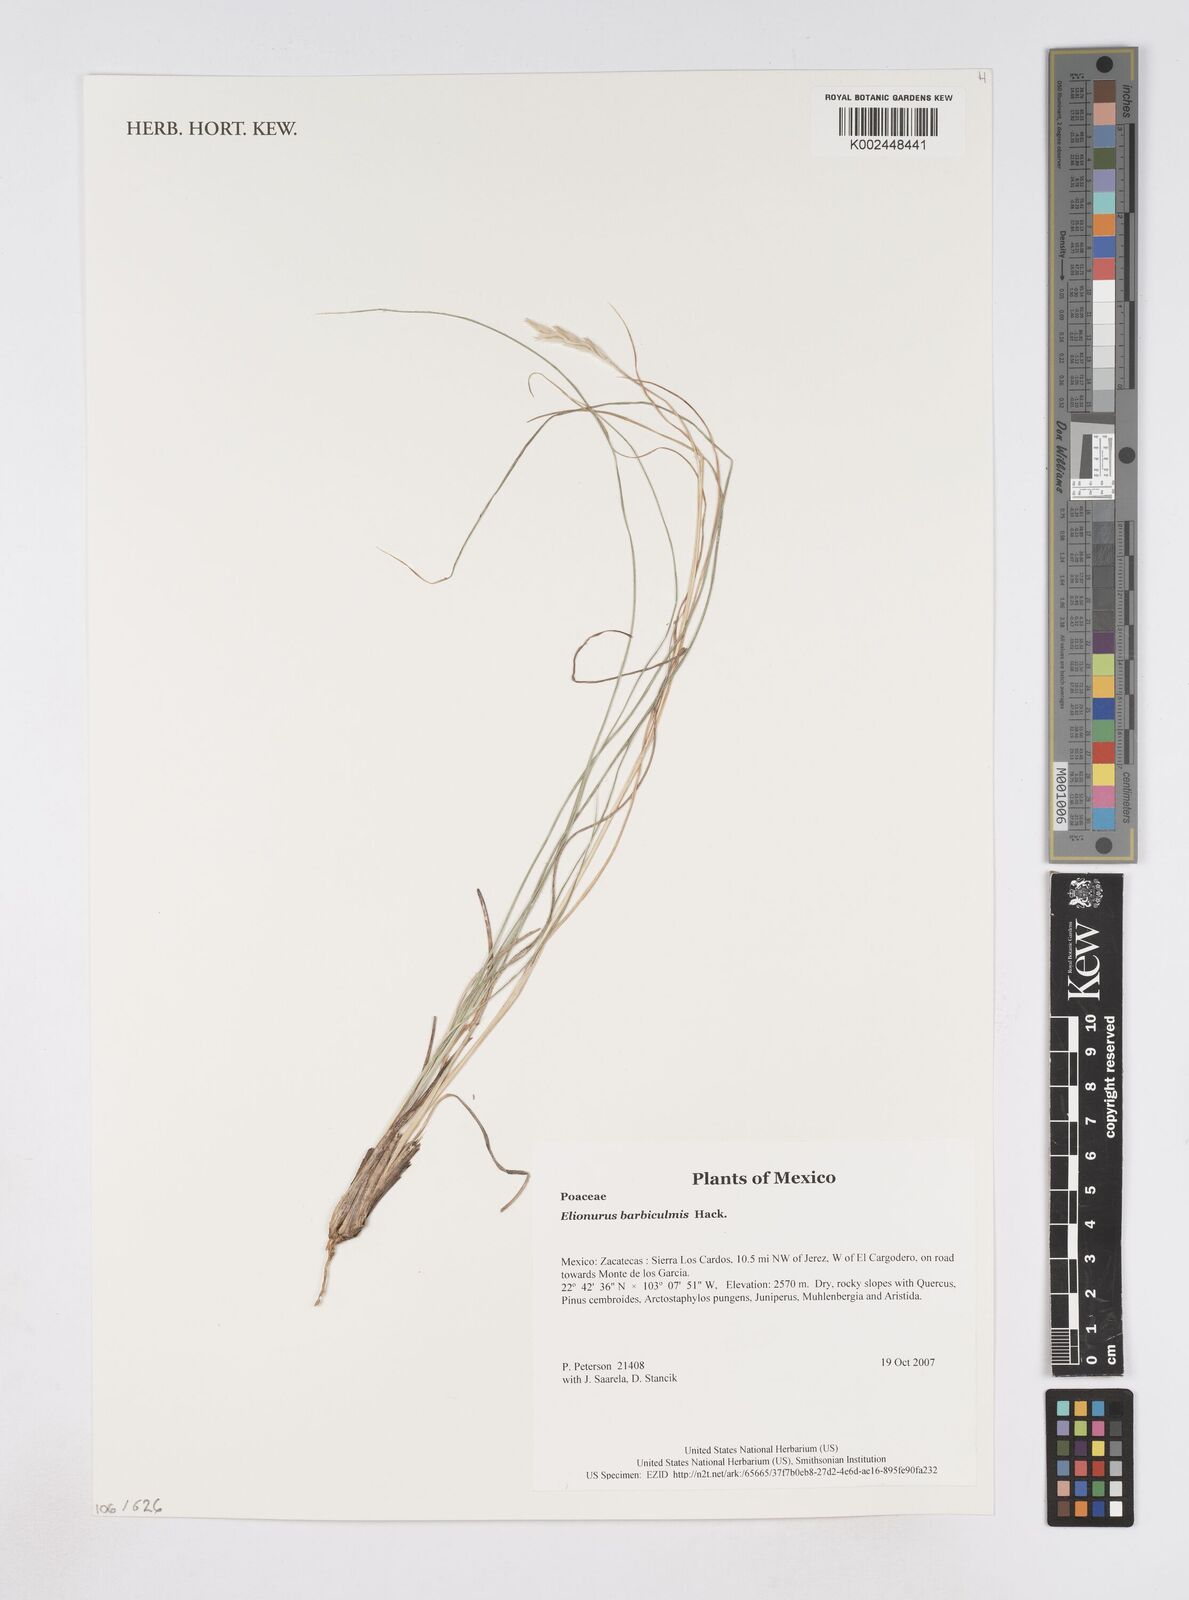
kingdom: Plantae
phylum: Tracheophyta
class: Liliopsida
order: Poales
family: Poaceae
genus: Elionurus
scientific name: Elionurus barbiculmis
